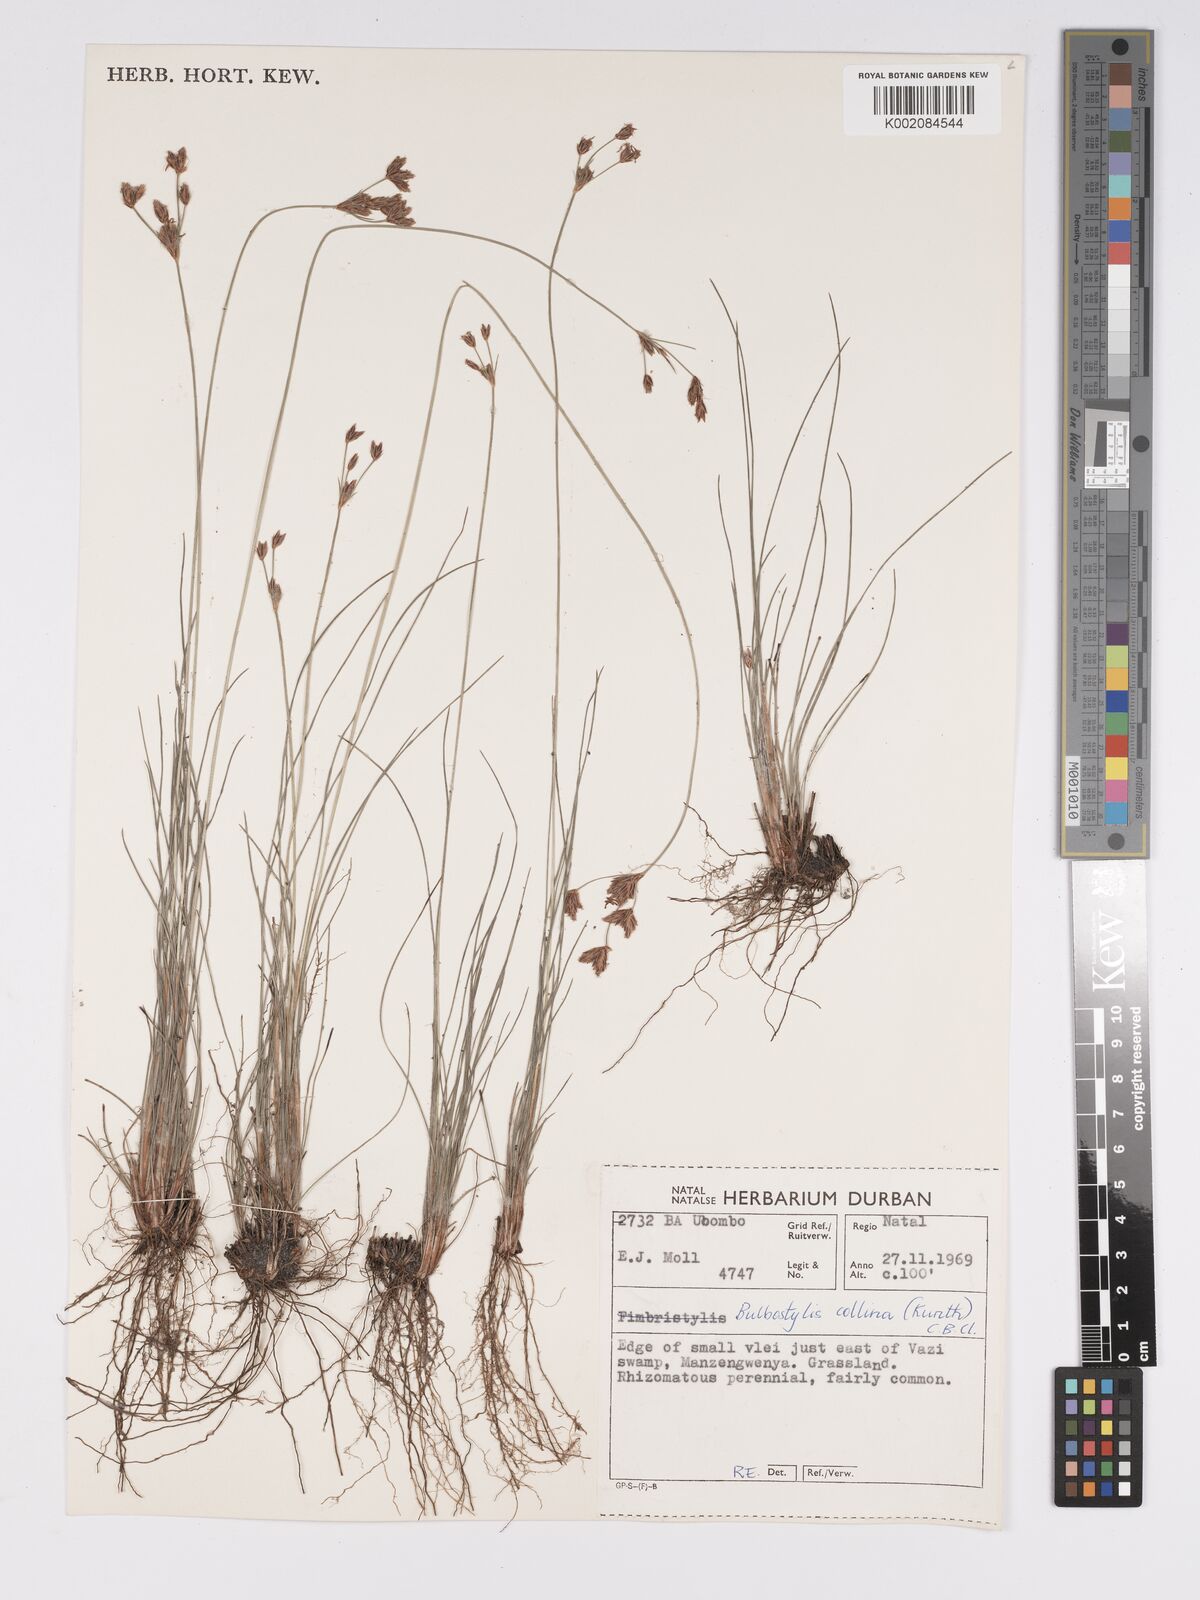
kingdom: Plantae
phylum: Tracheophyta
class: Liliopsida
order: Poales
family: Cyperaceae
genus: Bulbostylis
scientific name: Bulbostylis contexta
